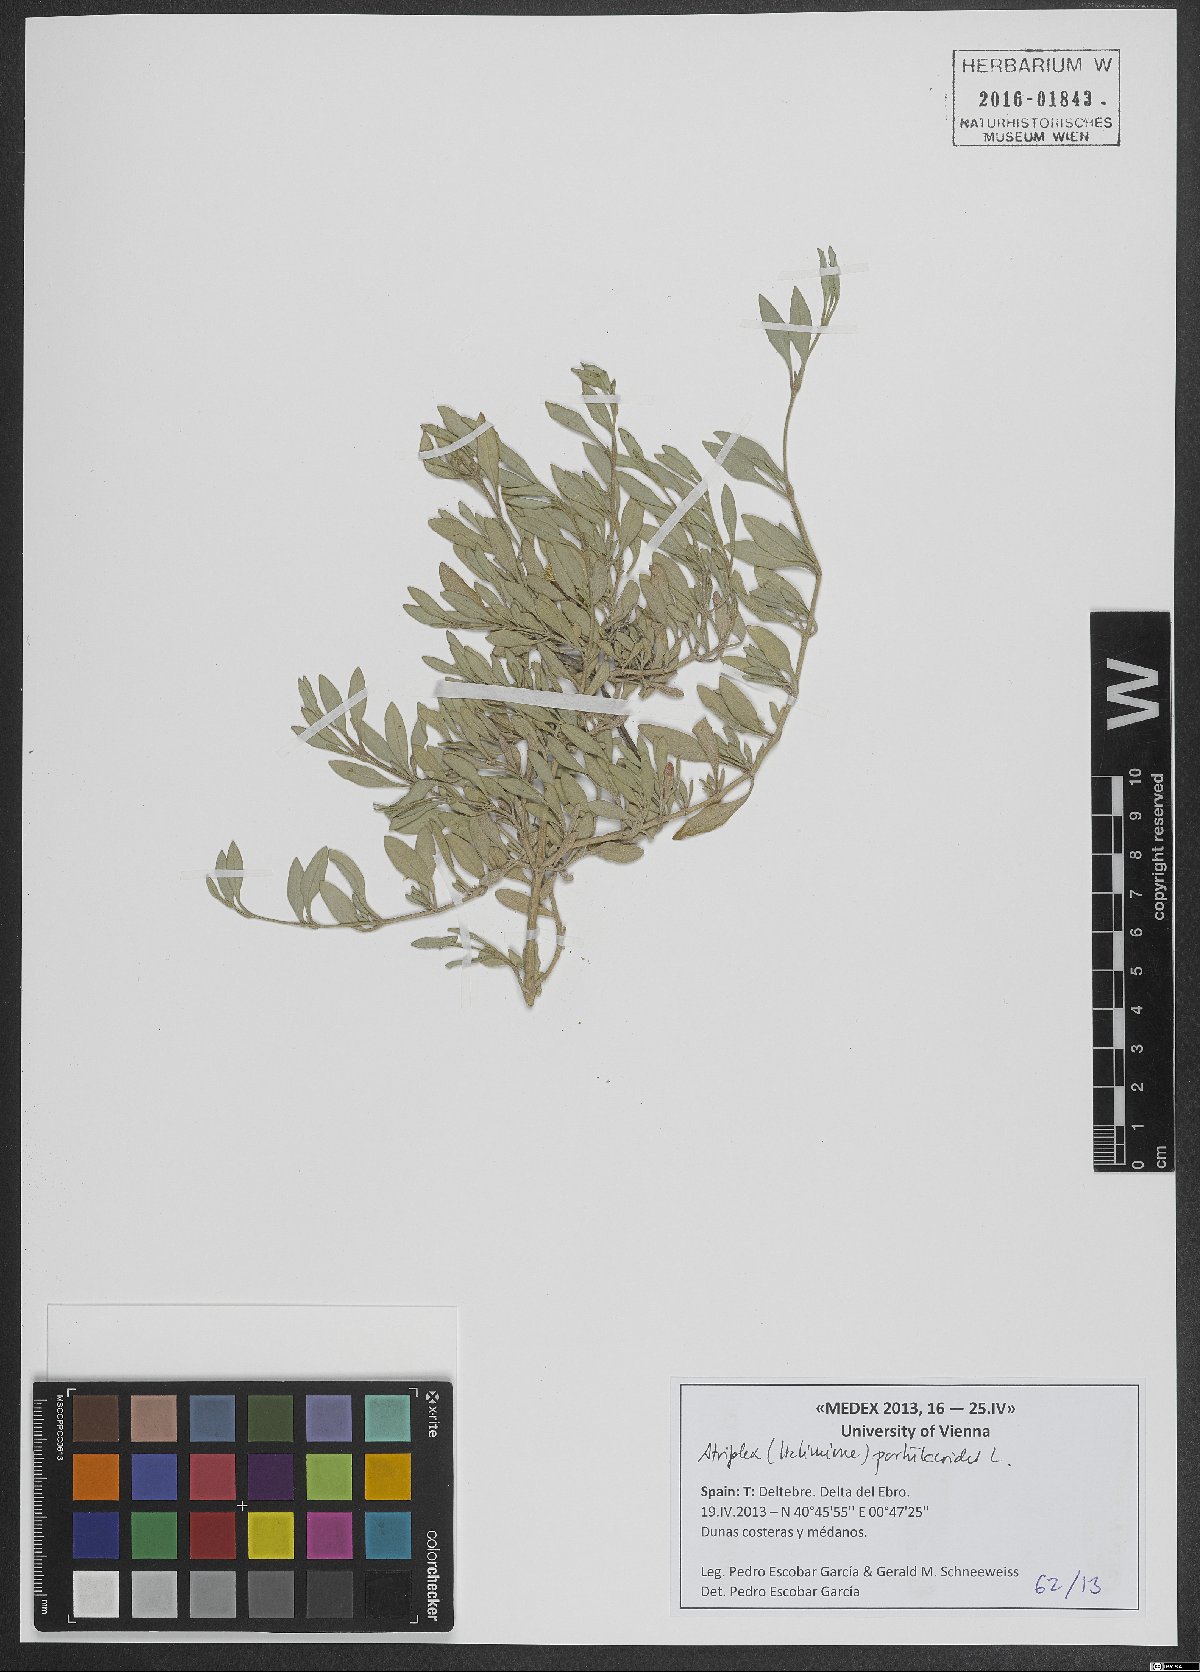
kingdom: Plantae
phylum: Tracheophyta
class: Magnoliopsida
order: Caryophyllales
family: Amaranthaceae
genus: Halimione
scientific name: Halimione portulacoides
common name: Sea-purslane
